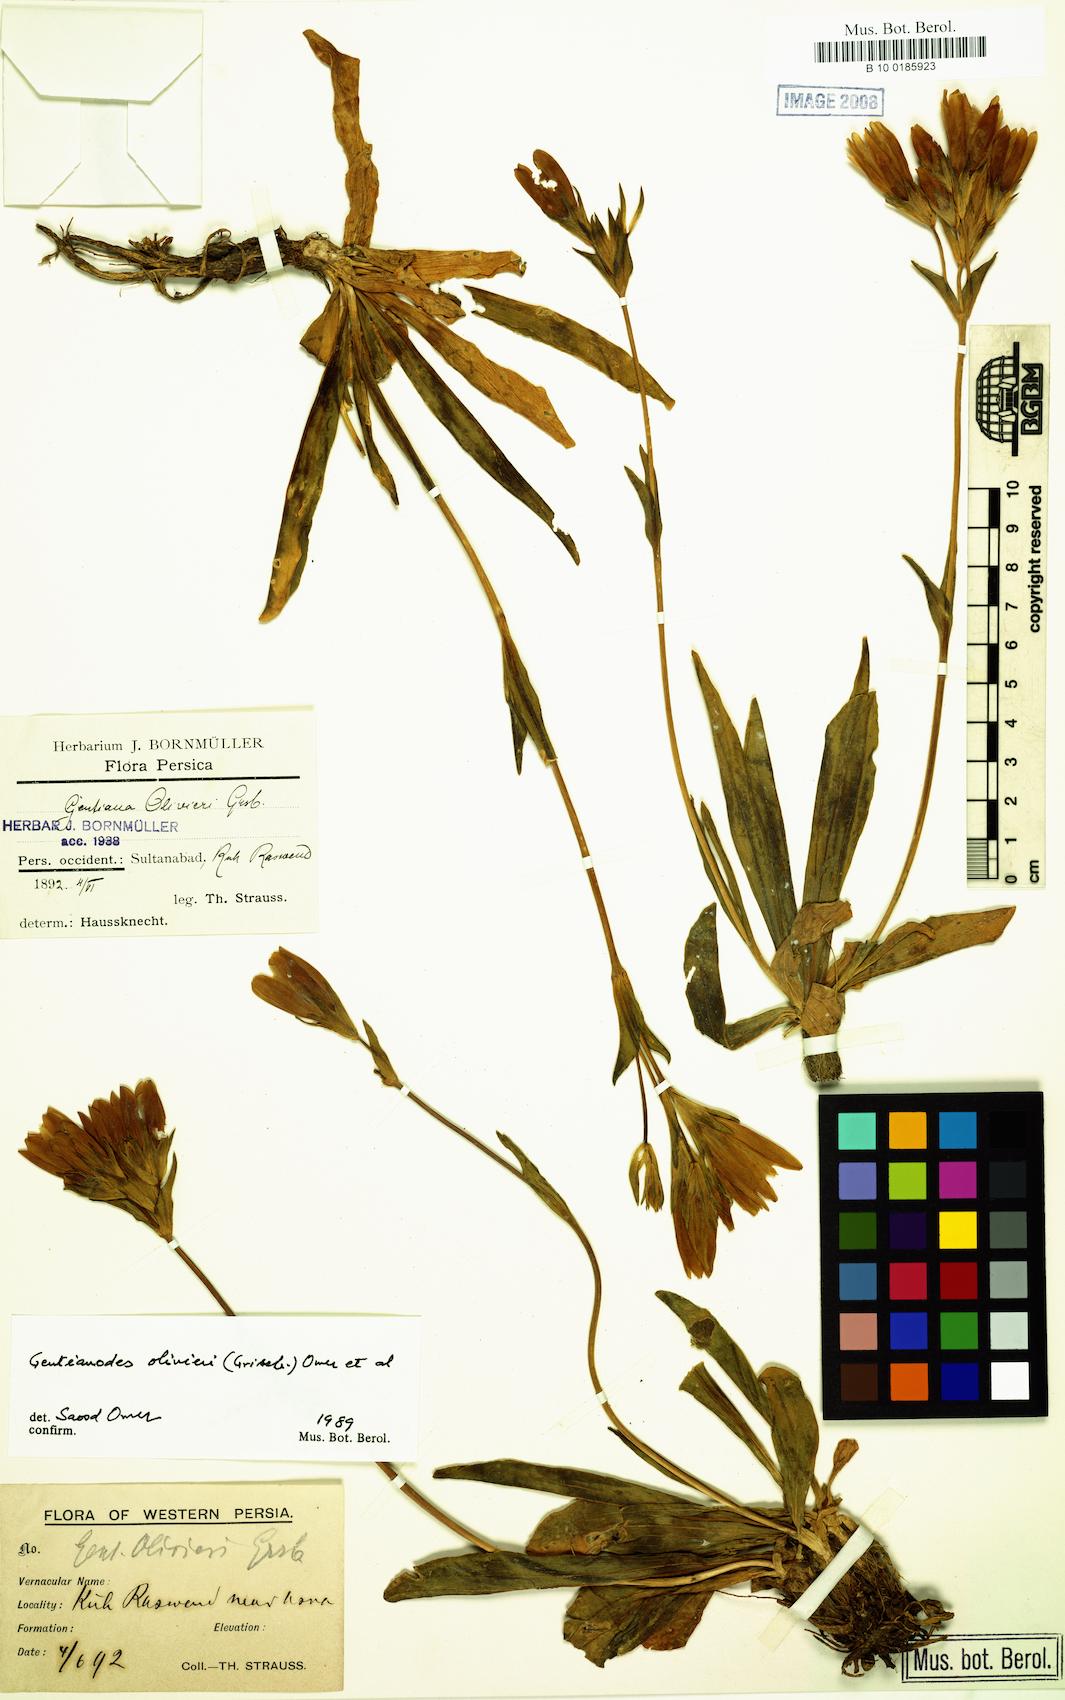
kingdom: Plantae
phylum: Tracheophyta
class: Magnoliopsida
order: Gentianales
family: Gentianaceae
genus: Gentiana
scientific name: Gentiana olivieri
